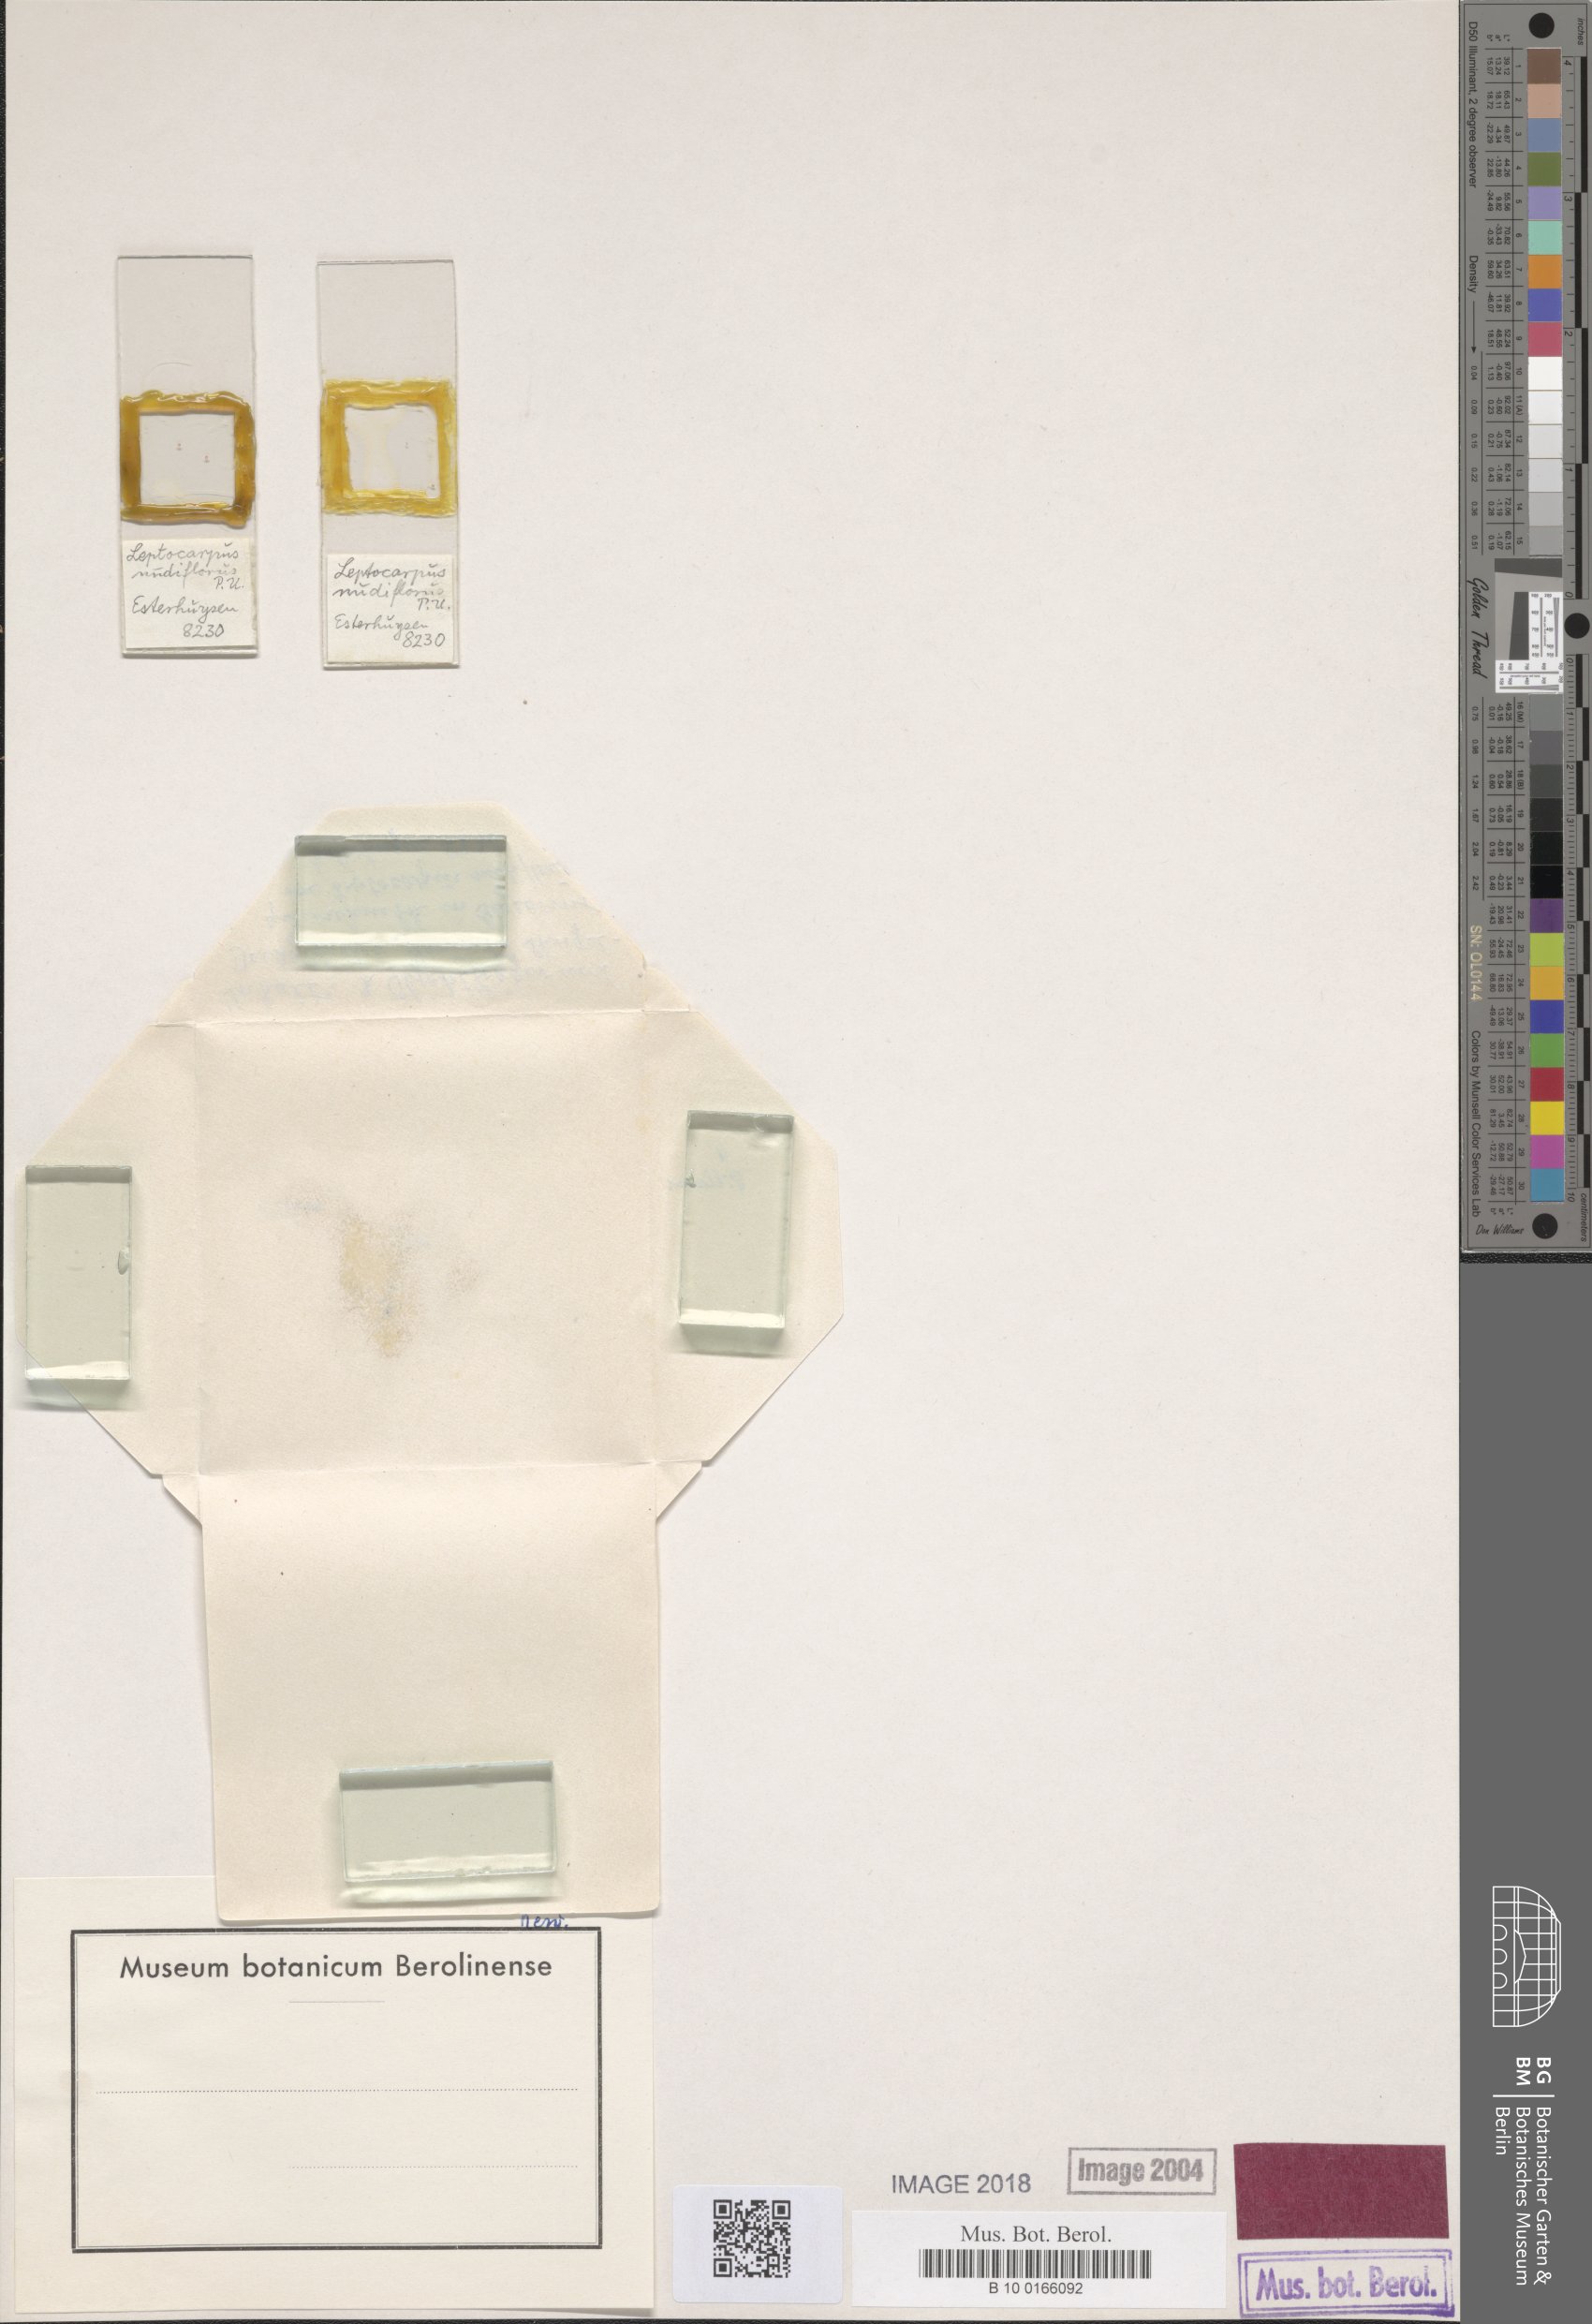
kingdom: Plantae
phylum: Tracheophyta
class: Liliopsida
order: Poales
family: Restionaceae
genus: Restio
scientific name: Restio nudiflorus
